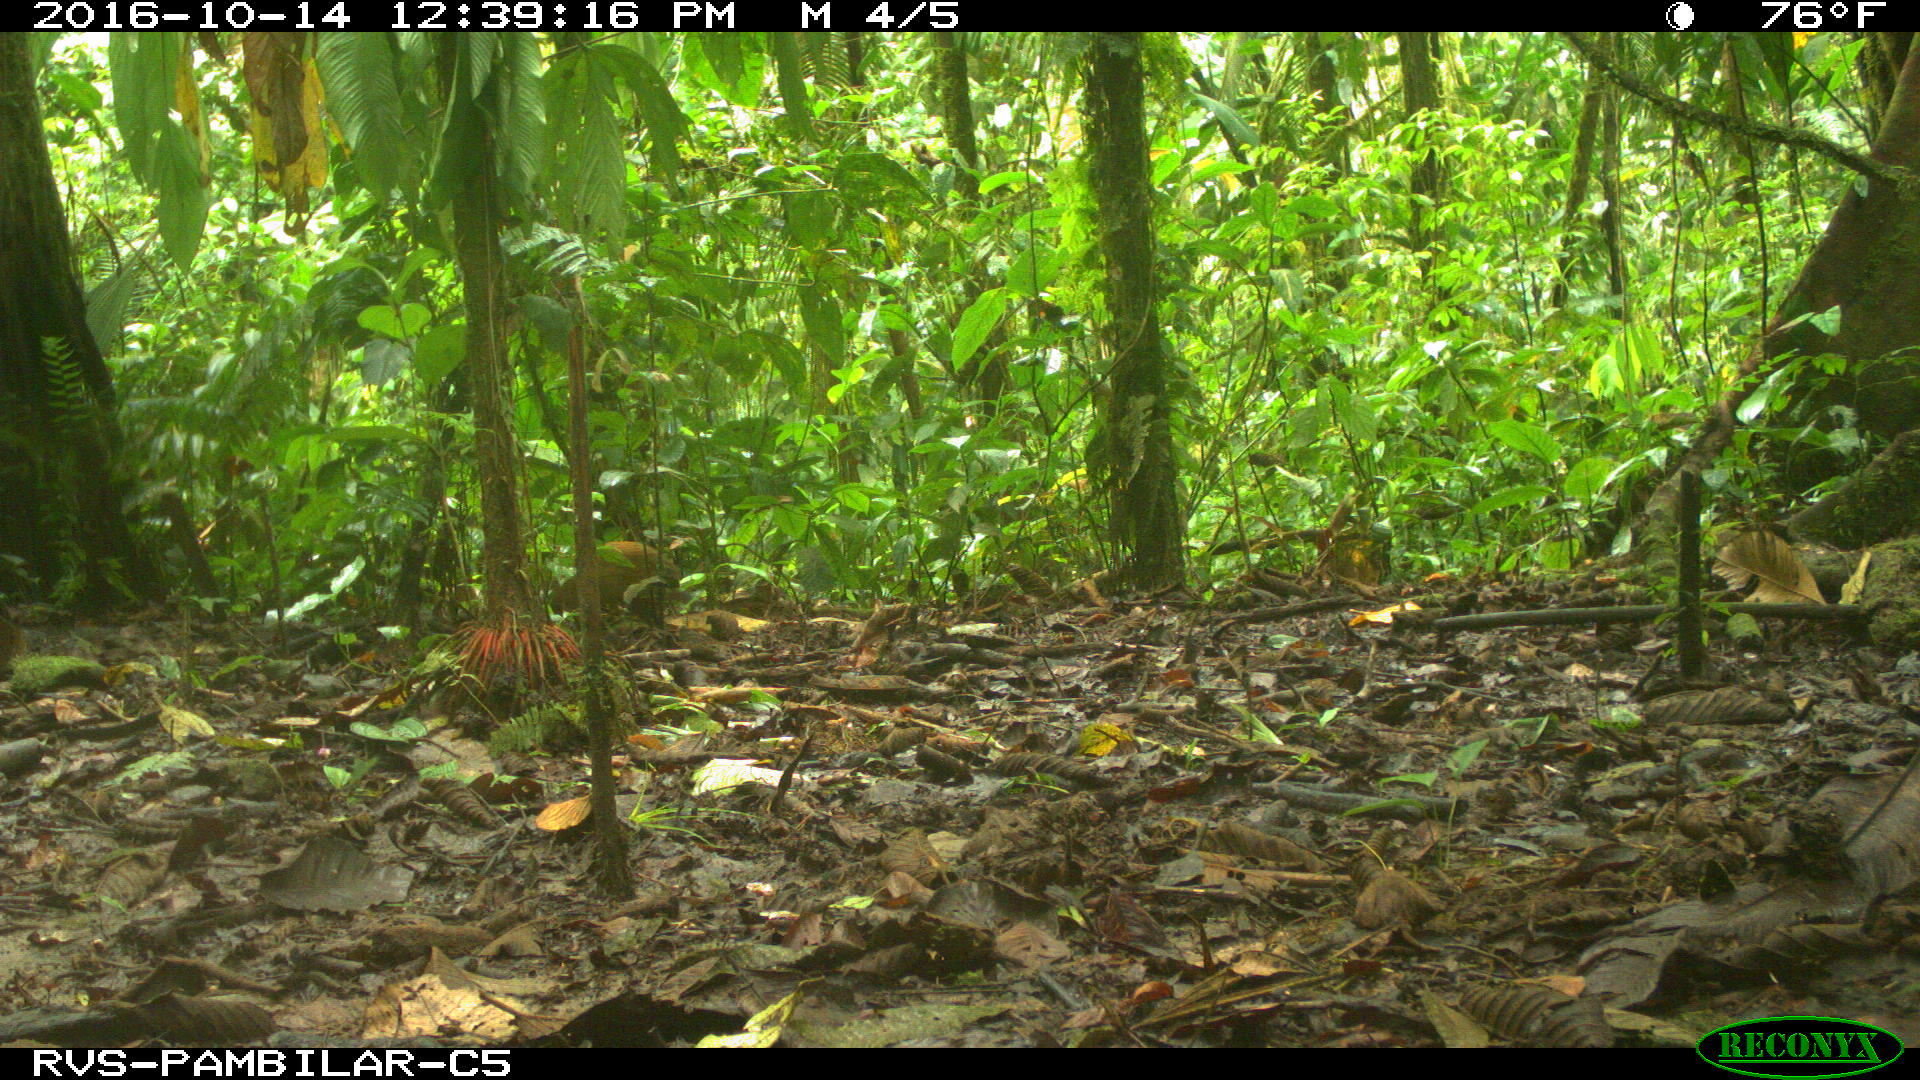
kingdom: Animalia
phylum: Chordata
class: Mammalia
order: Rodentia
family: Dasyproctidae
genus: Dasyprocta
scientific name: Dasyprocta punctata
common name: Central american agouti
